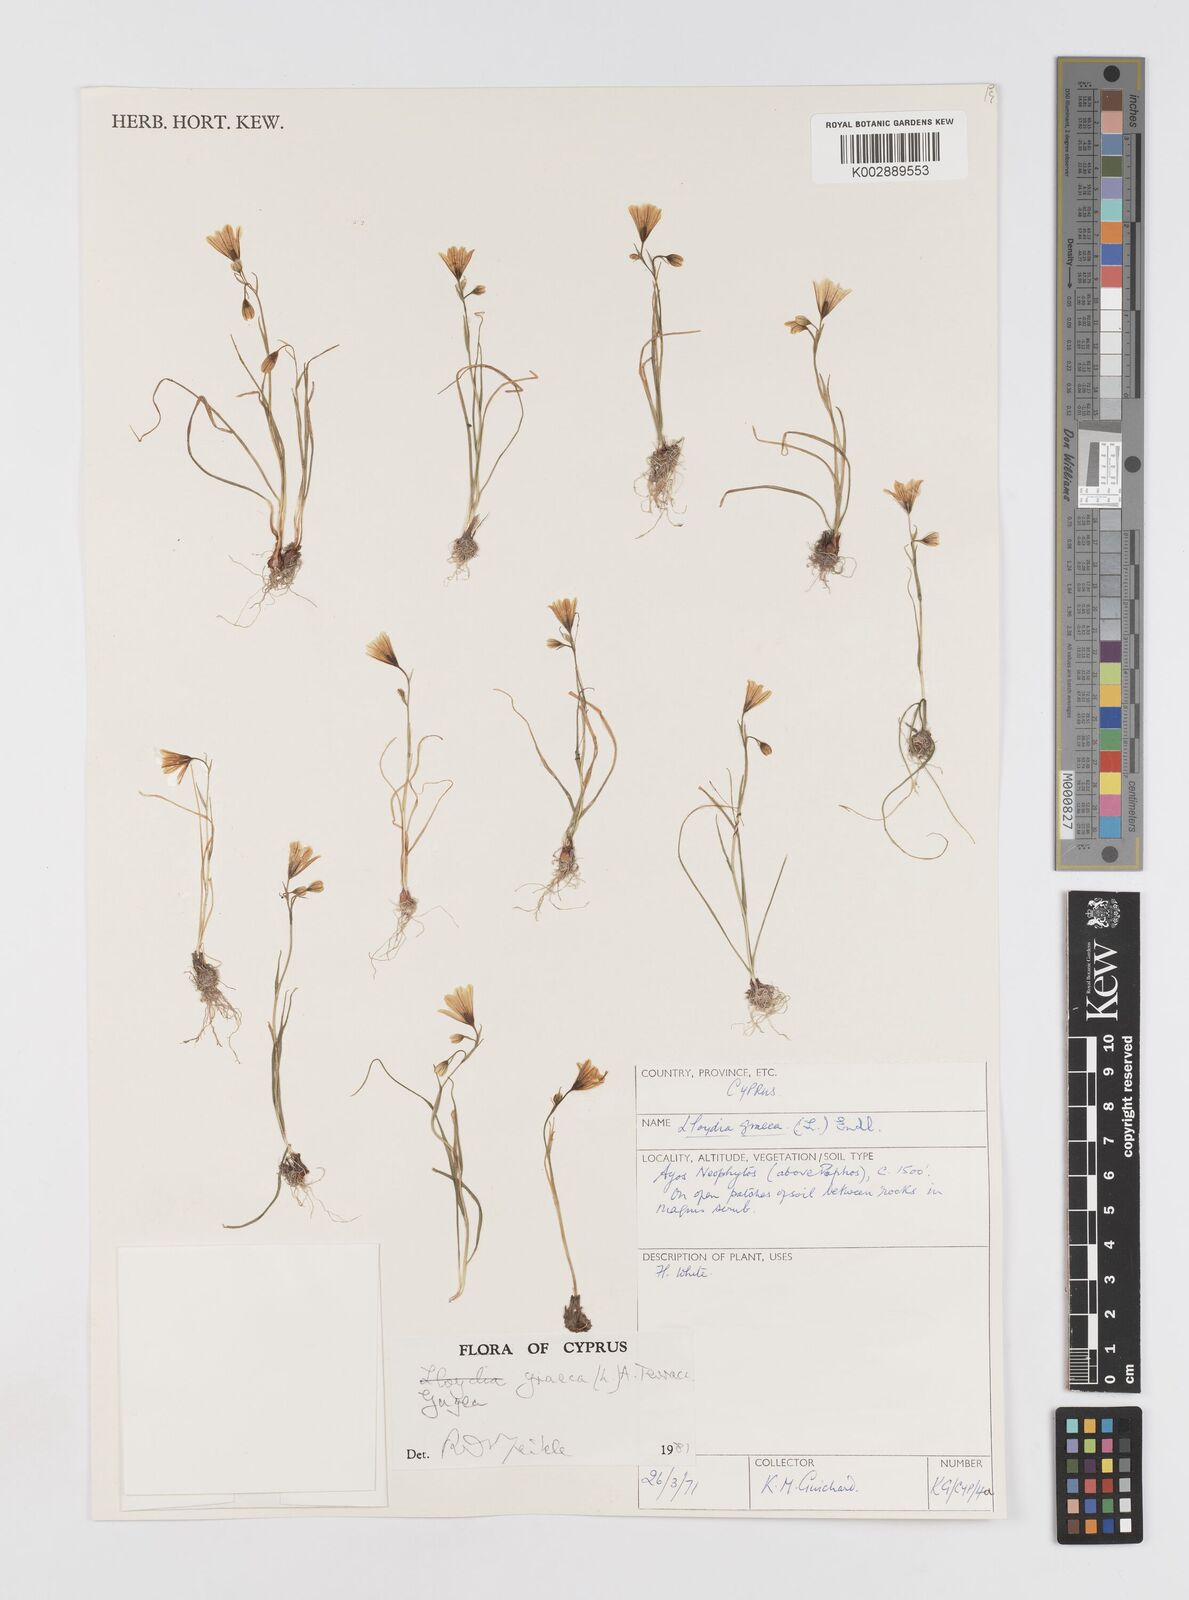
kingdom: Plantae
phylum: Tracheophyta
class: Liliopsida
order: Liliales
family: Liliaceae
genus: Gagea
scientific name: Gagea graeca
